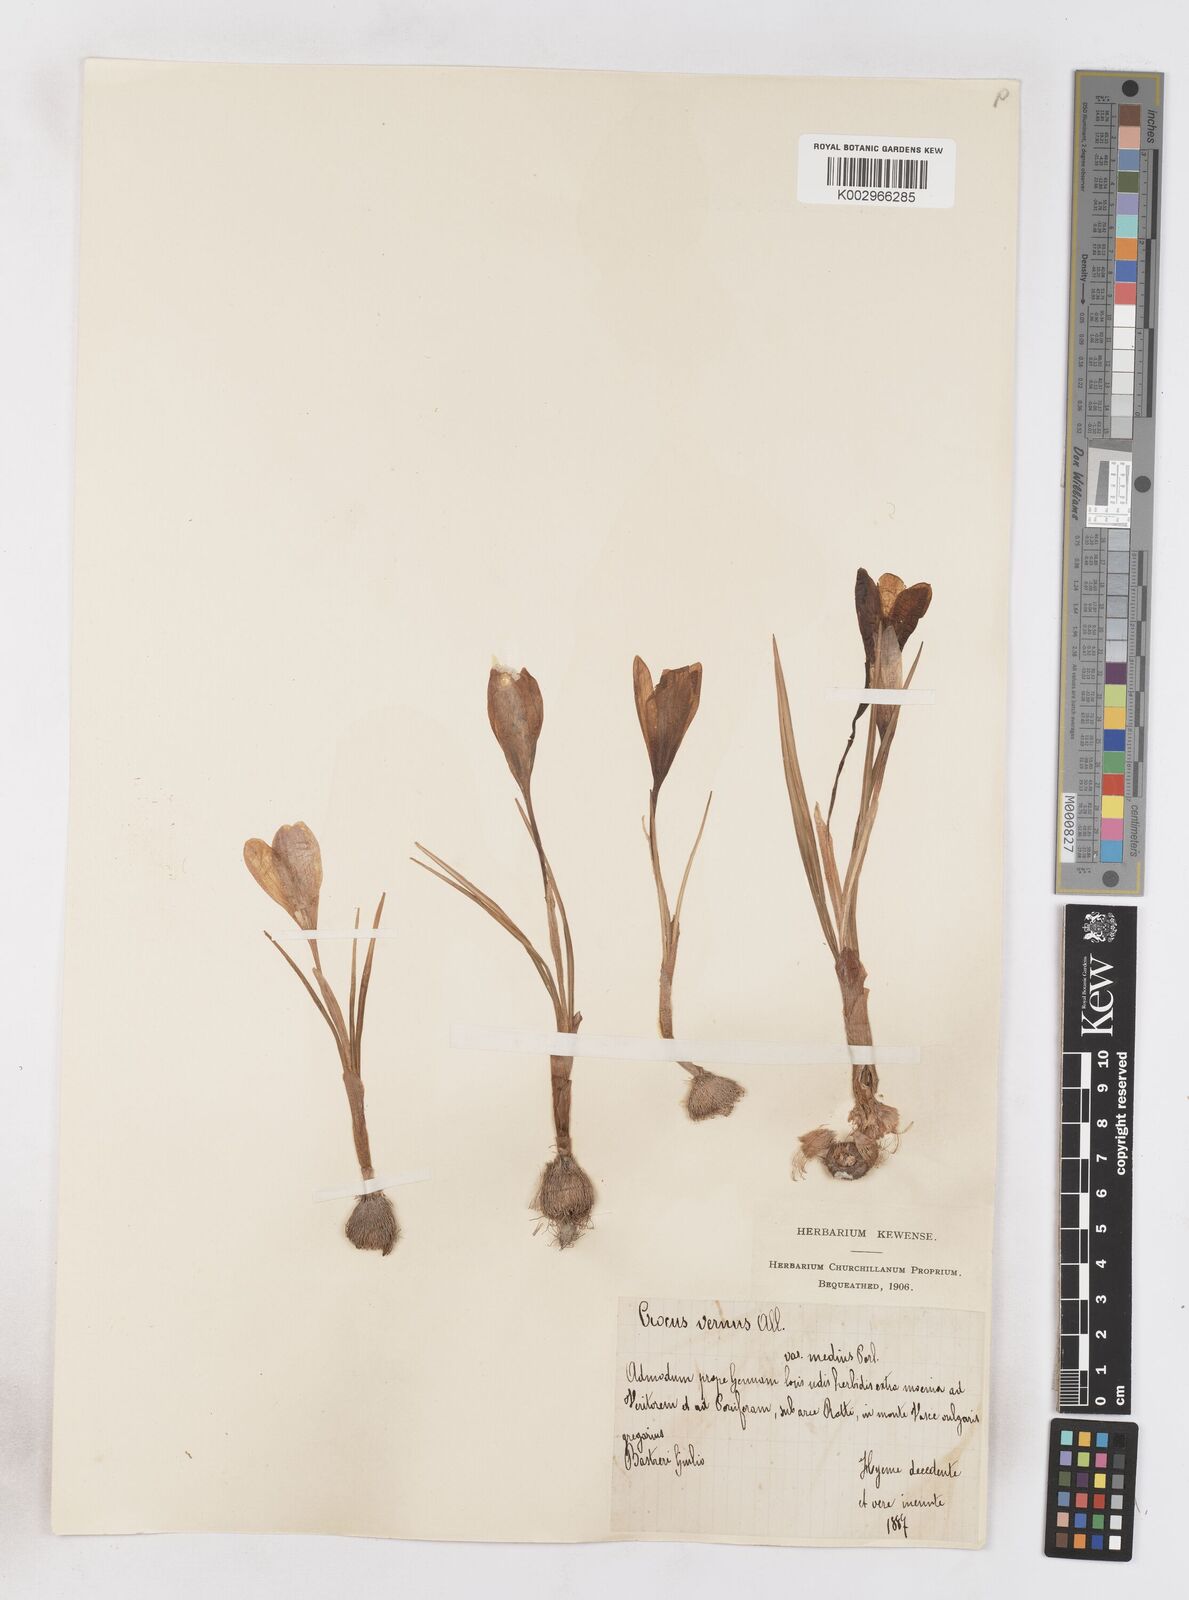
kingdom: Plantae
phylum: Tracheophyta
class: Liliopsida
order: Asparagales
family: Iridaceae
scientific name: Iridaceae
